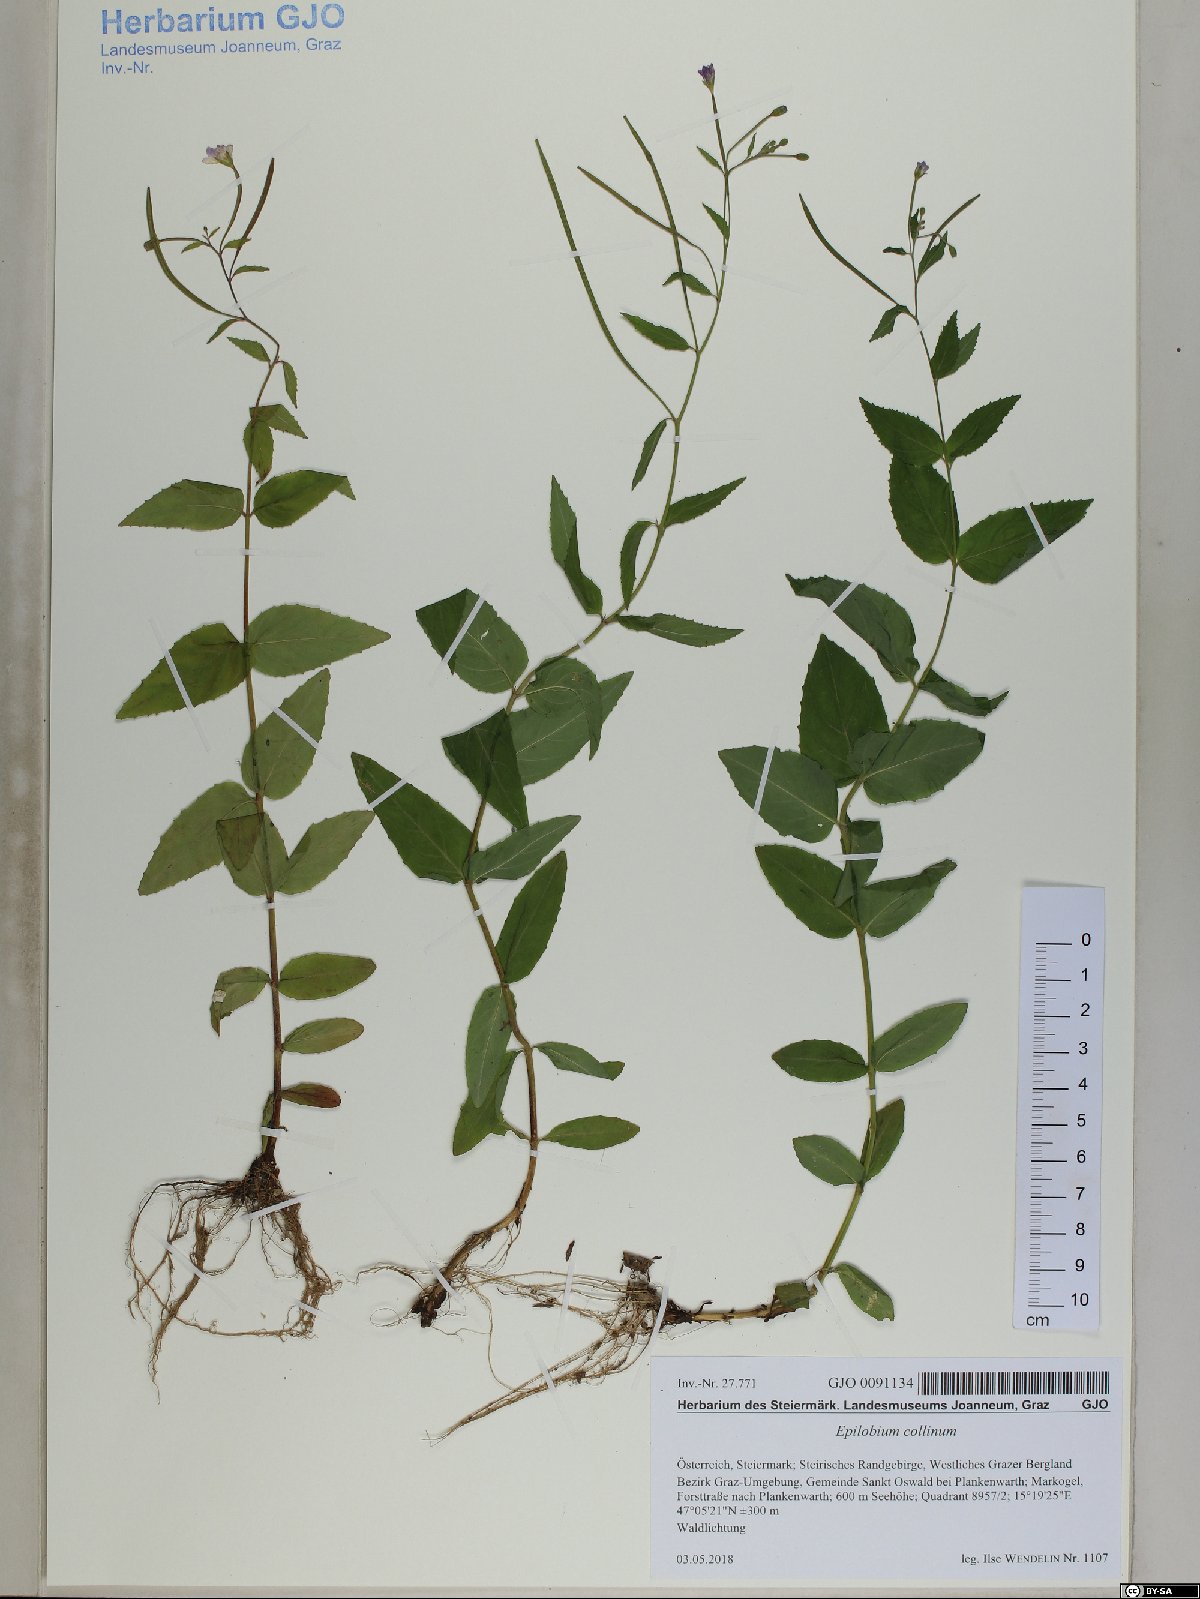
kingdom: Plantae
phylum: Tracheophyta
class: Magnoliopsida
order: Myrtales
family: Onagraceae
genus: Epilobium
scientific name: Epilobium collinum
